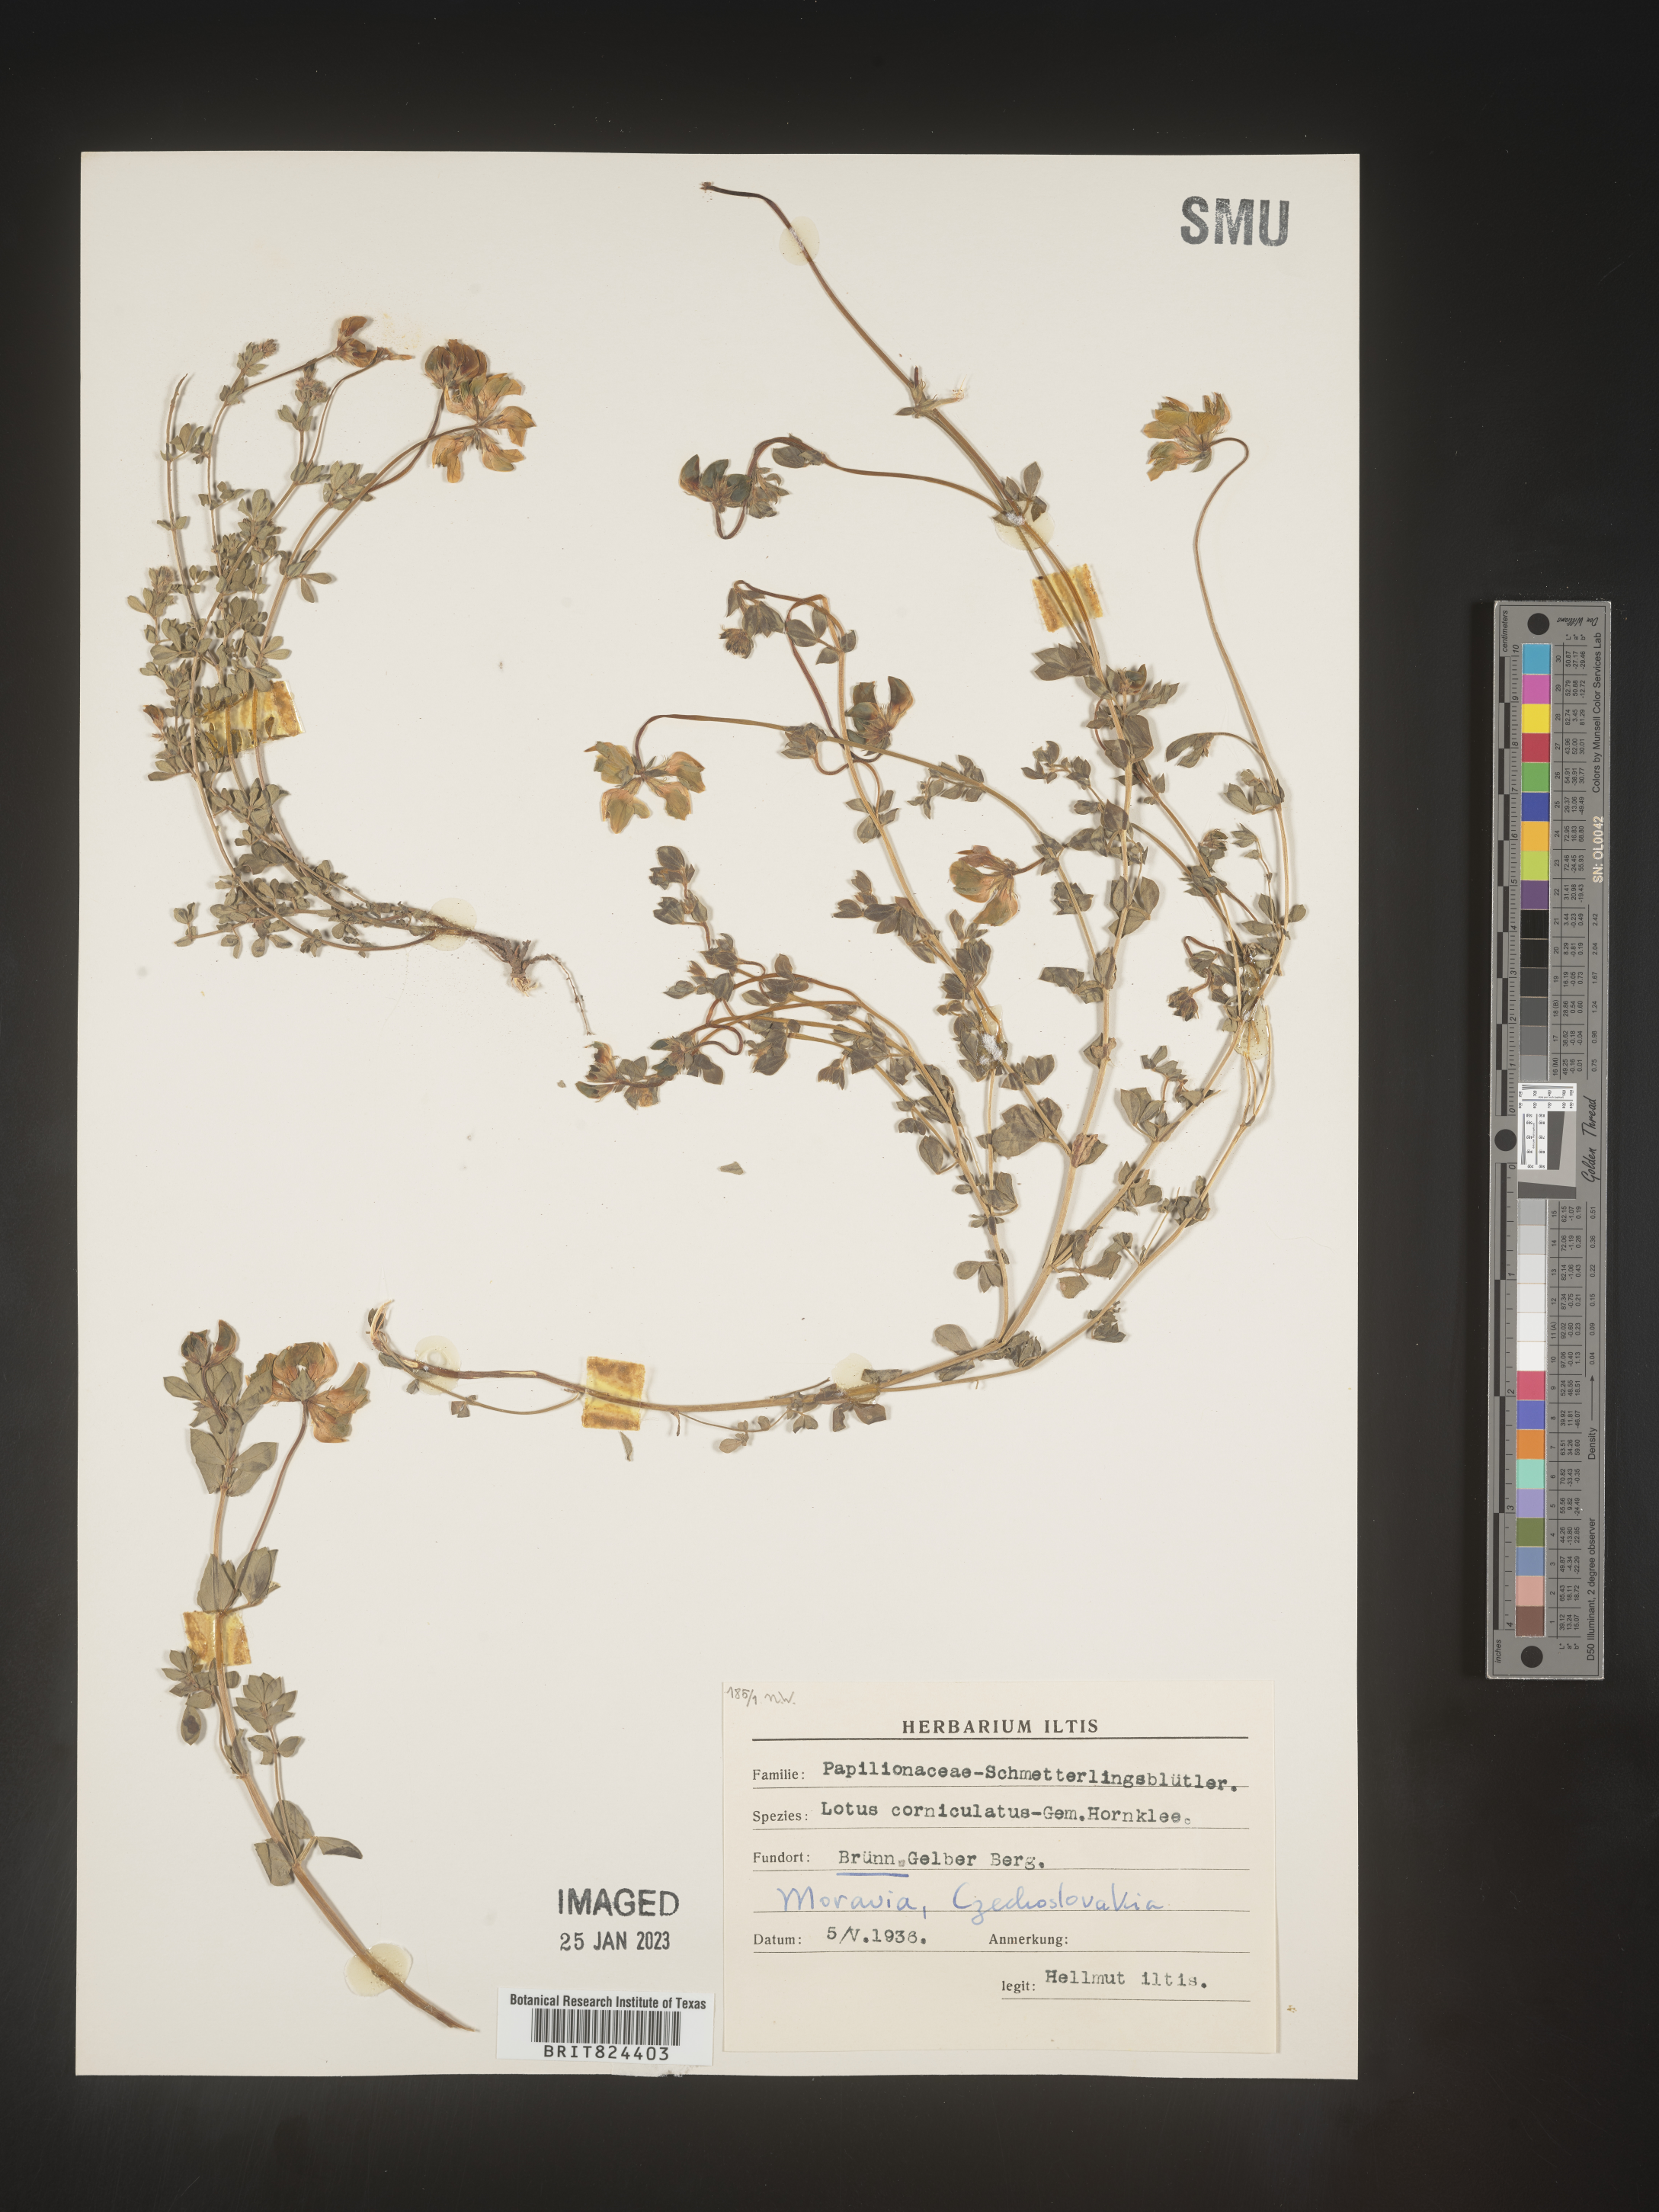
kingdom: Plantae
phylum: Tracheophyta
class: Magnoliopsida
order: Fabales
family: Fabaceae
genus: Lotus
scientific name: Lotus
